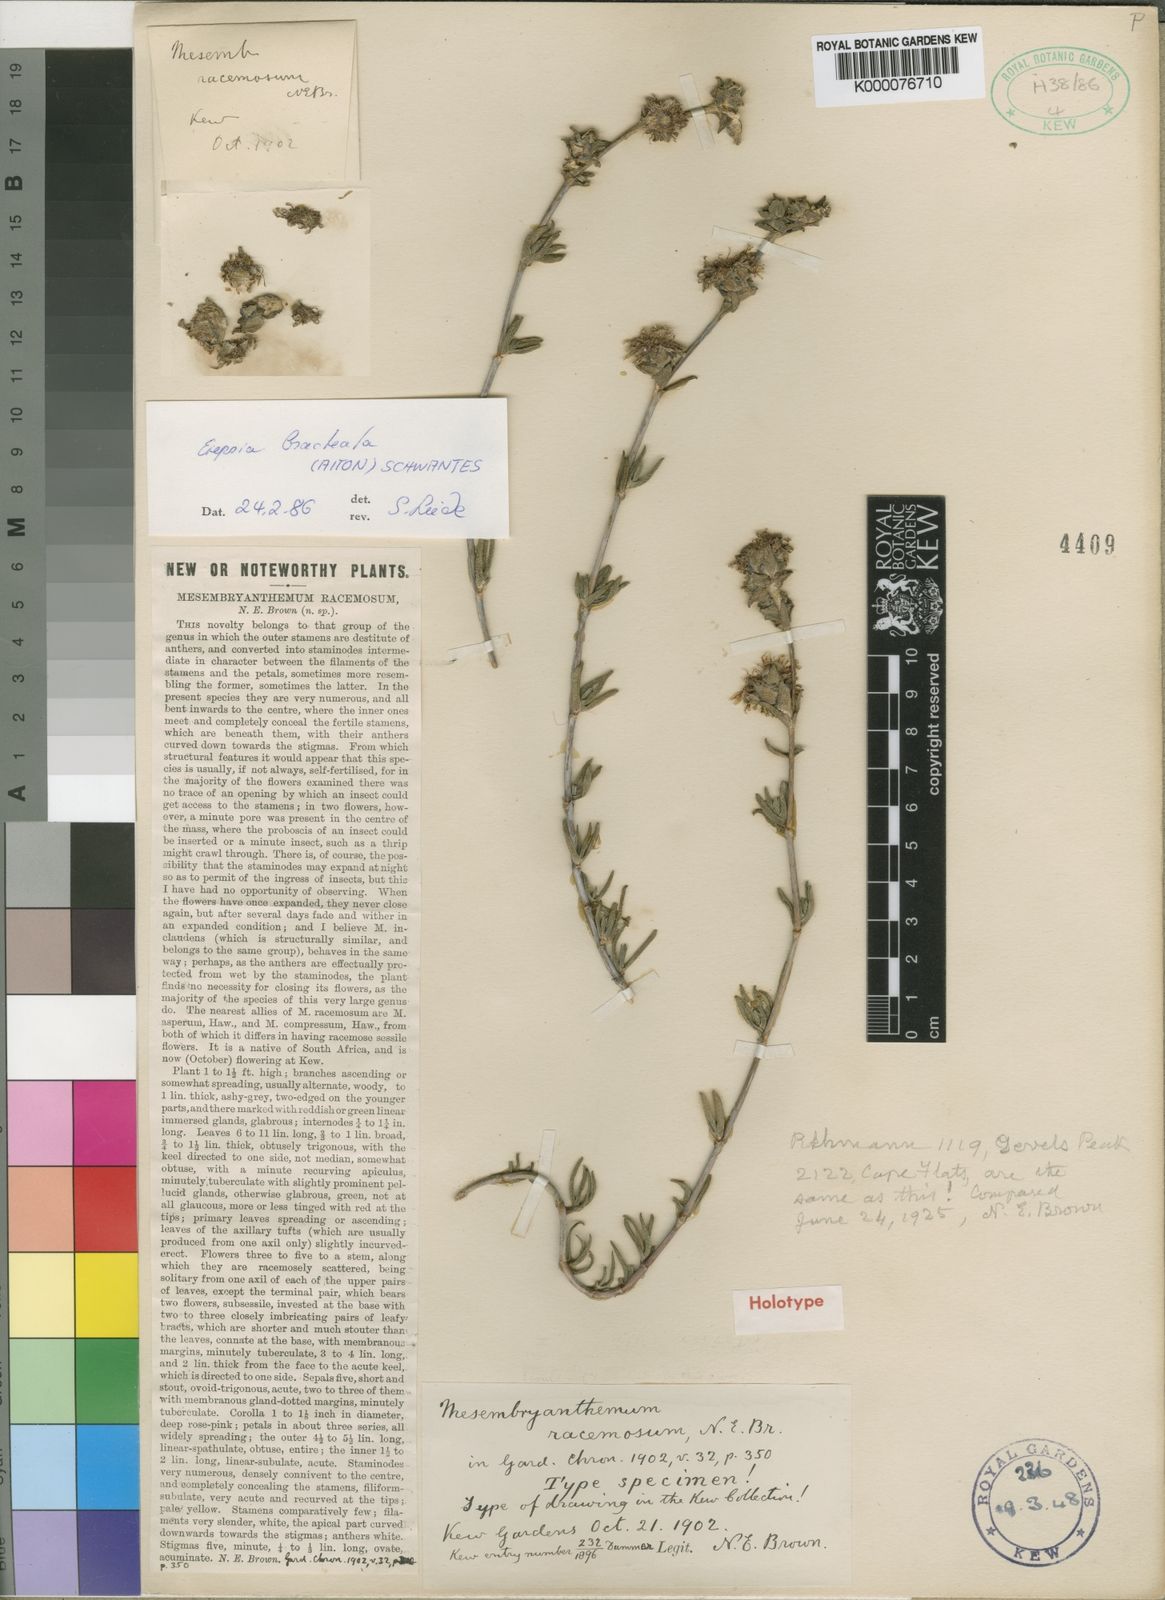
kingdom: Plantae
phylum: Tracheophyta
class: Magnoliopsida
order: Caryophyllales
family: Aizoaceae
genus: Erepsia
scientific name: Erepsia bracteata
